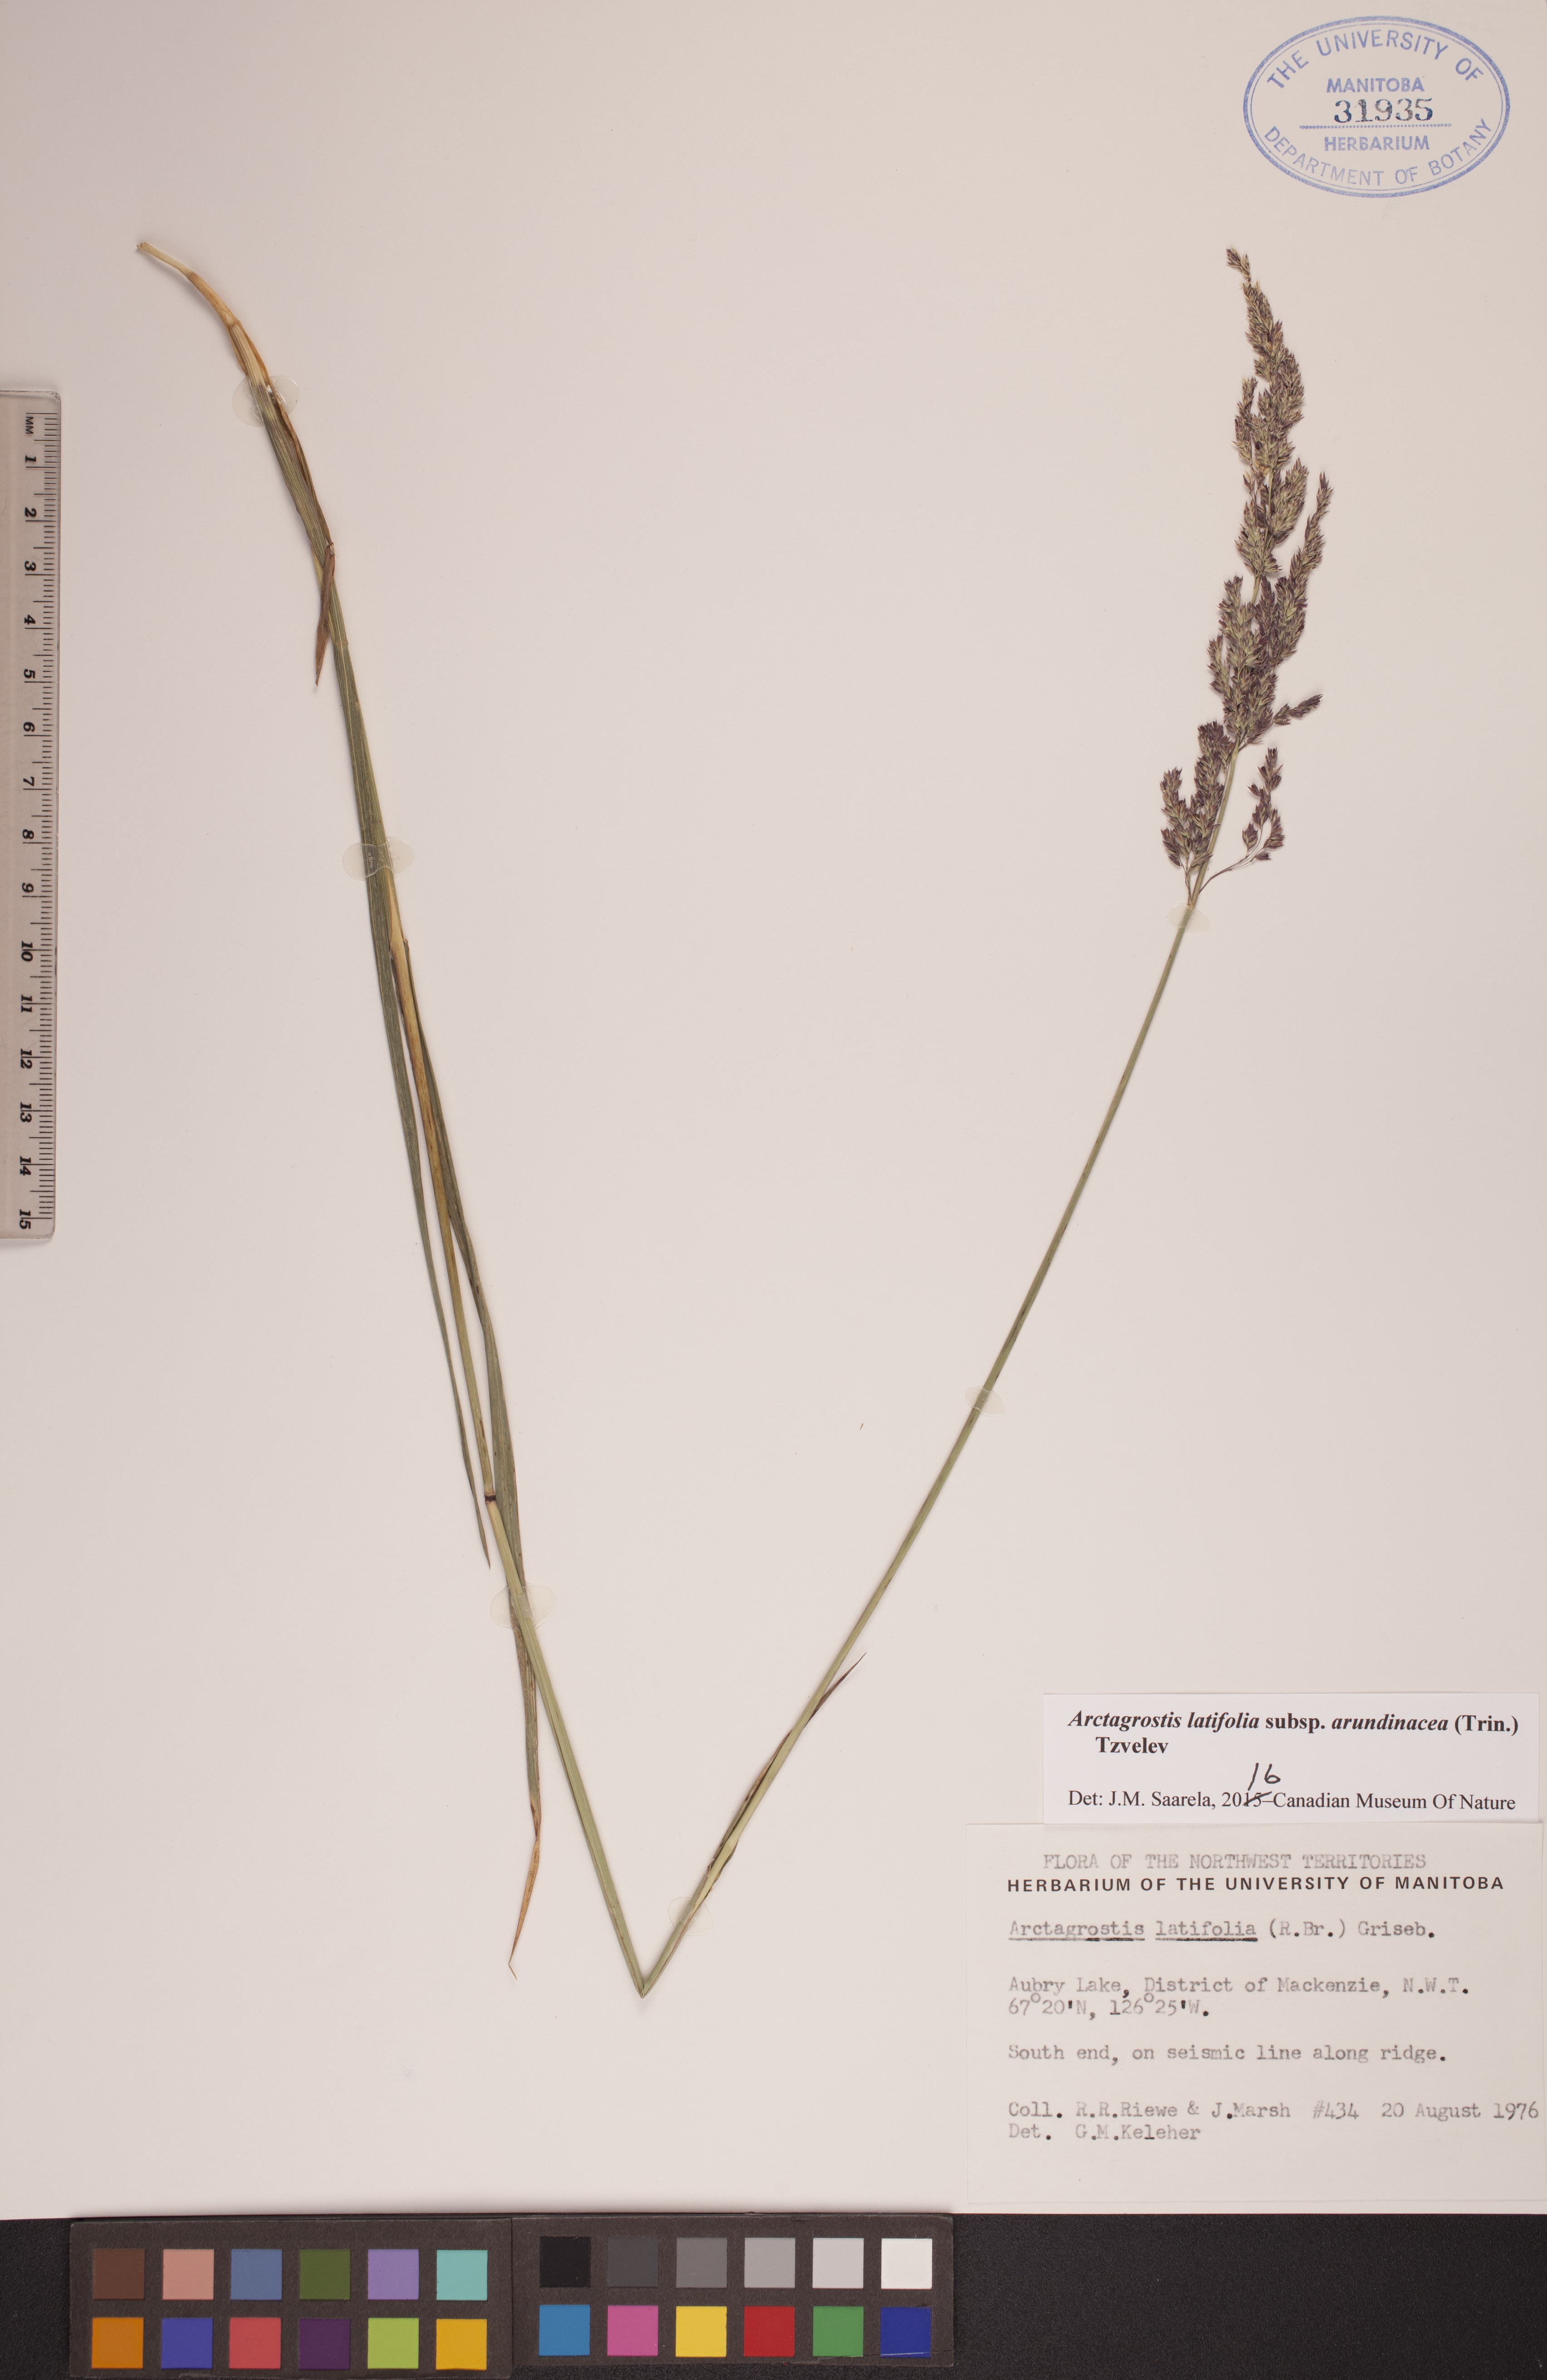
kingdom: Plantae
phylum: Tracheophyta
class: Liliopsida
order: Poales
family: Poaceae
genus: Arctagrostis
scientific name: Arctagrostis arundinacea
